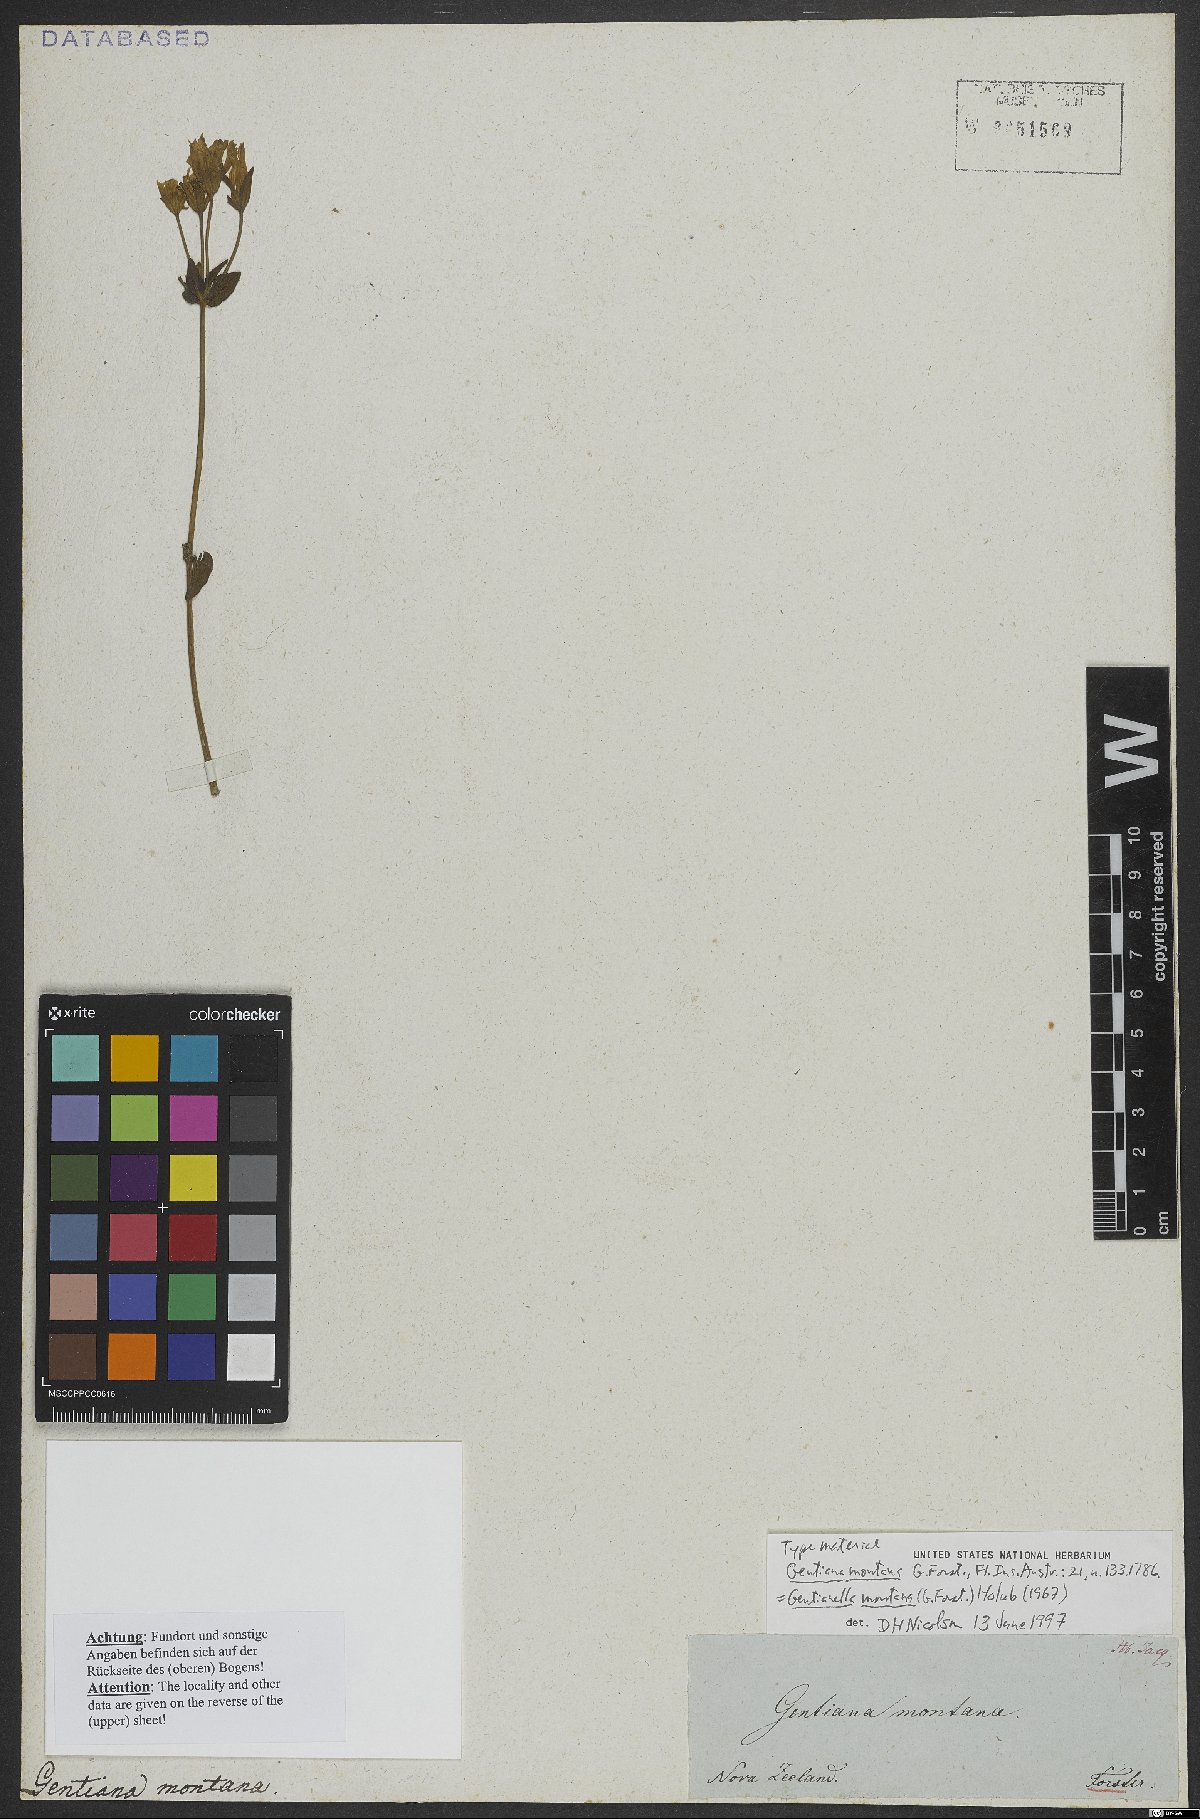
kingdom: Plantae
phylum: Tracheophyta
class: Magnoliopsida
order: Gentianales
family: Gentianaceae
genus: Gentianella
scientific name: Gentianella montana
